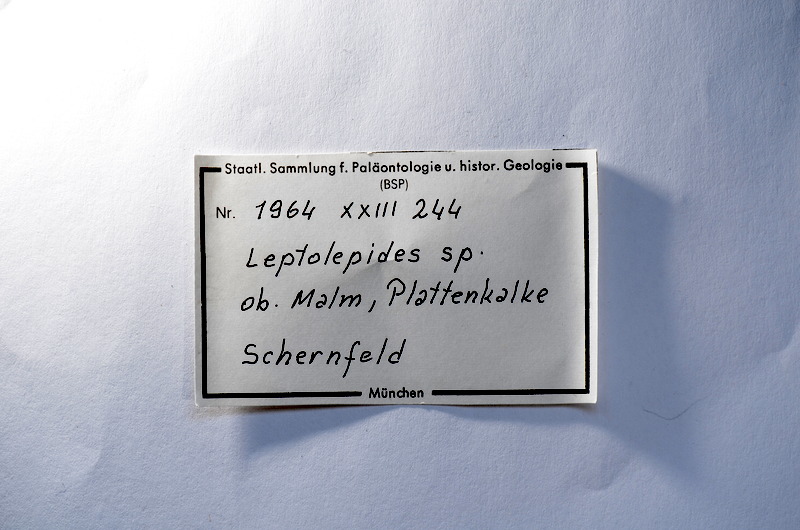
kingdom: Animalia
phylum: Chordata
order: Salmoniformes
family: Orthogonikleithridae
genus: Leptolepides
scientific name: Leptolepides
